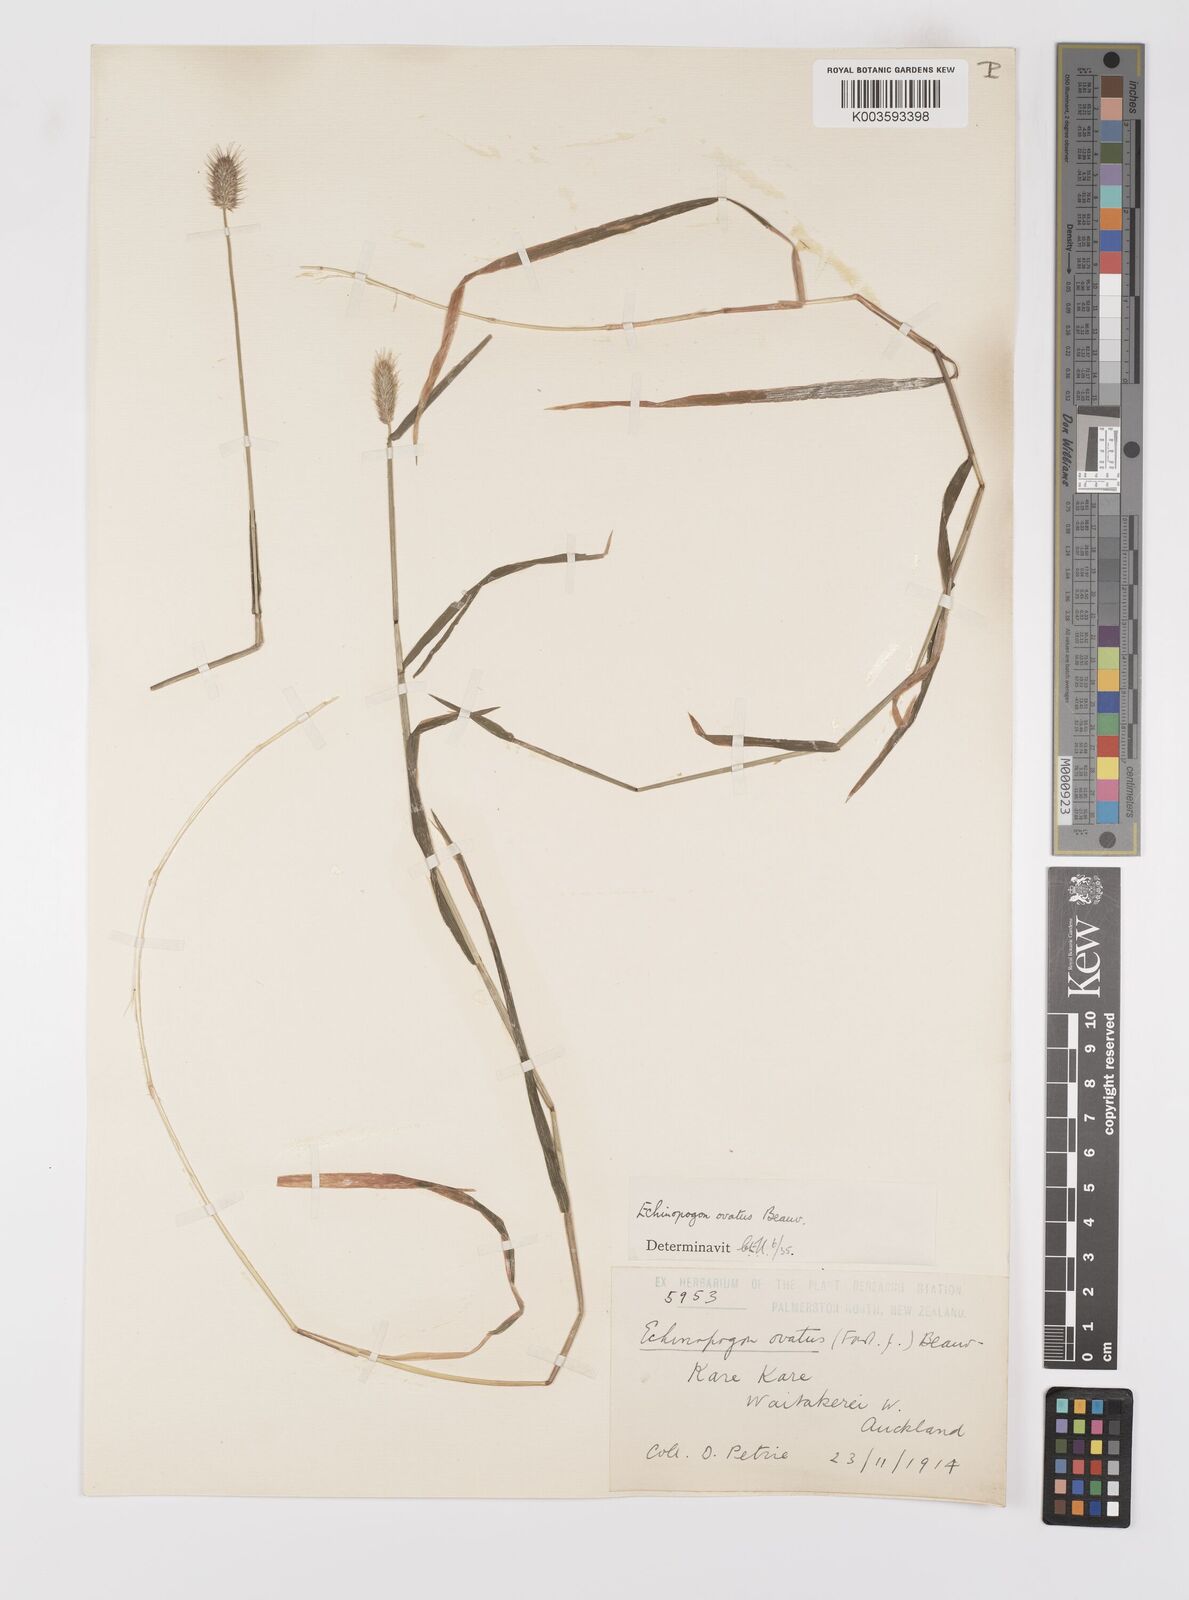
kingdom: Plantae
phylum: Tracheophyta
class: Liliopsida
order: Poales
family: Poaceae
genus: Echinopogon
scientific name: Echinopogon ovatus
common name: Hedgehog-grass
